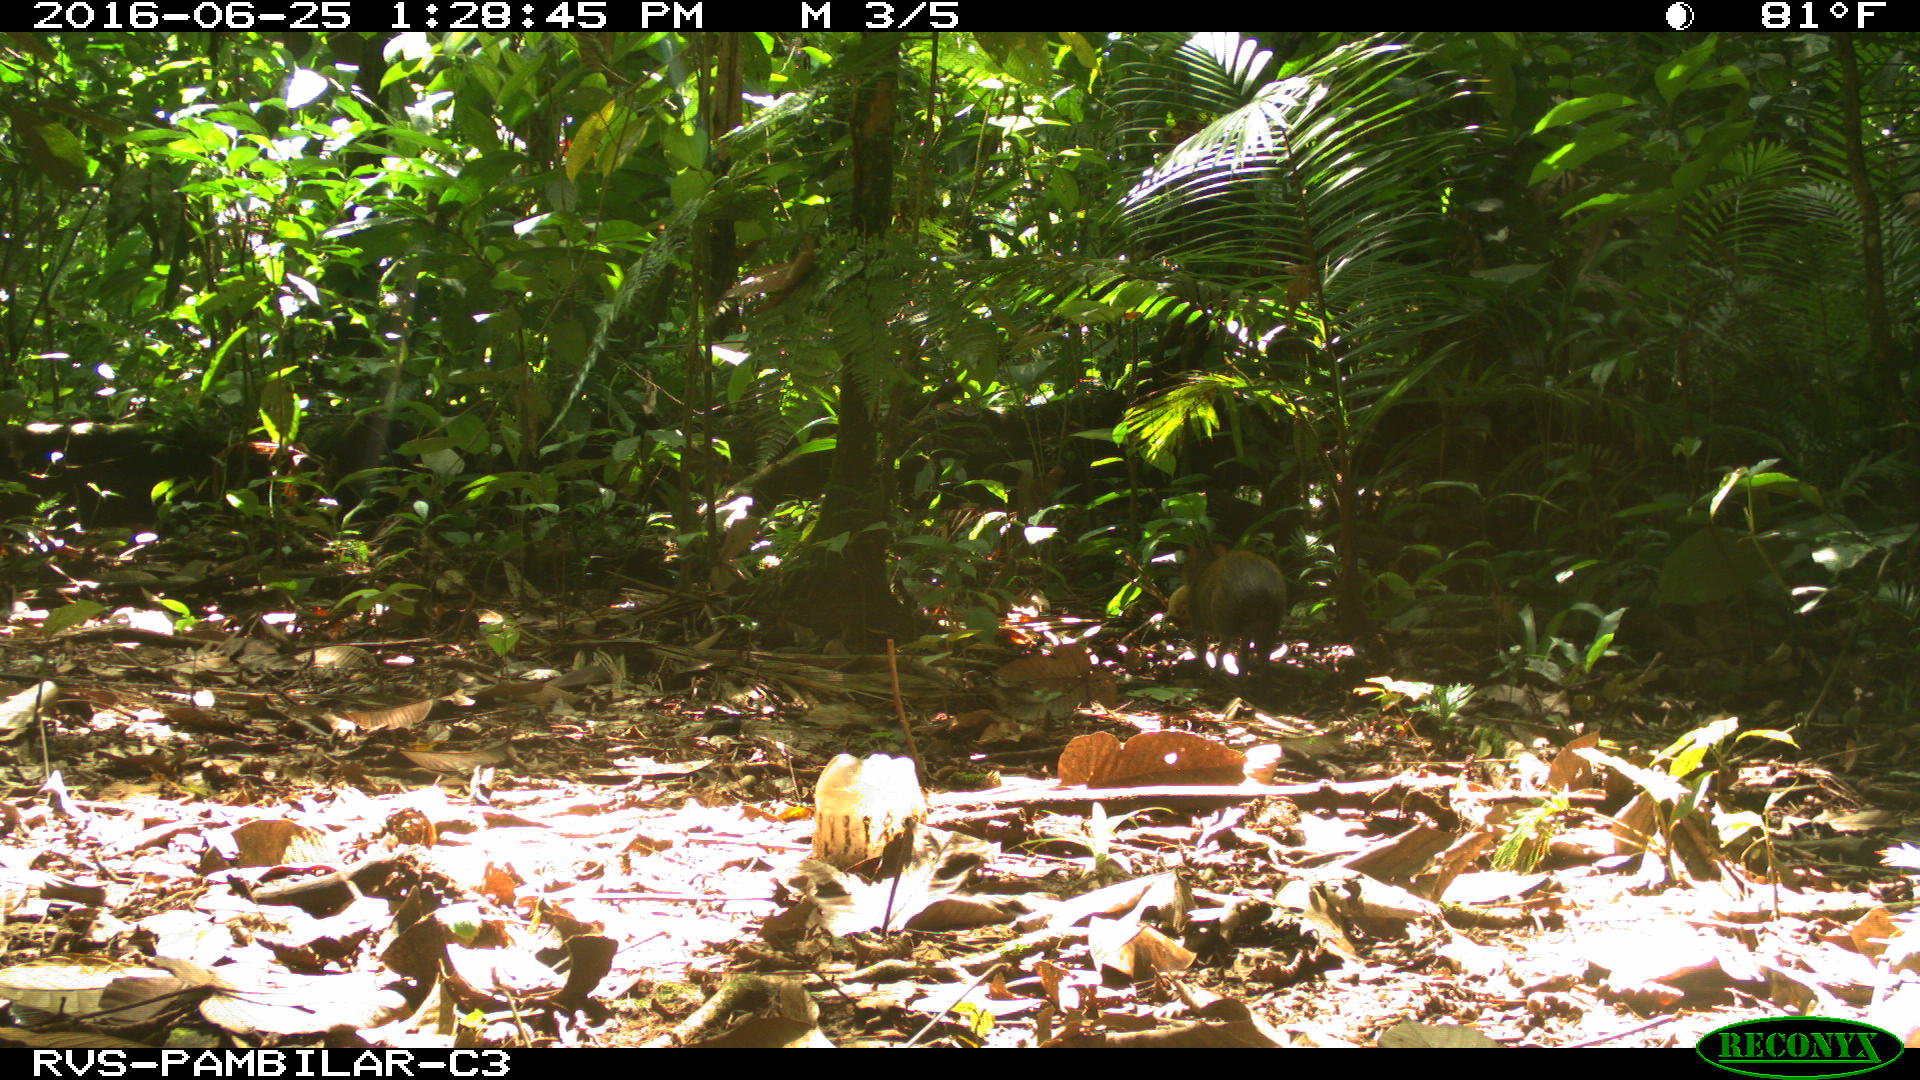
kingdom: Animalia
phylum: Chordata
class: Mammalia
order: Rodentia
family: Dasyproctidae
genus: Dasyprocta
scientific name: Dasyprocta punctata
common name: Central american agouti
